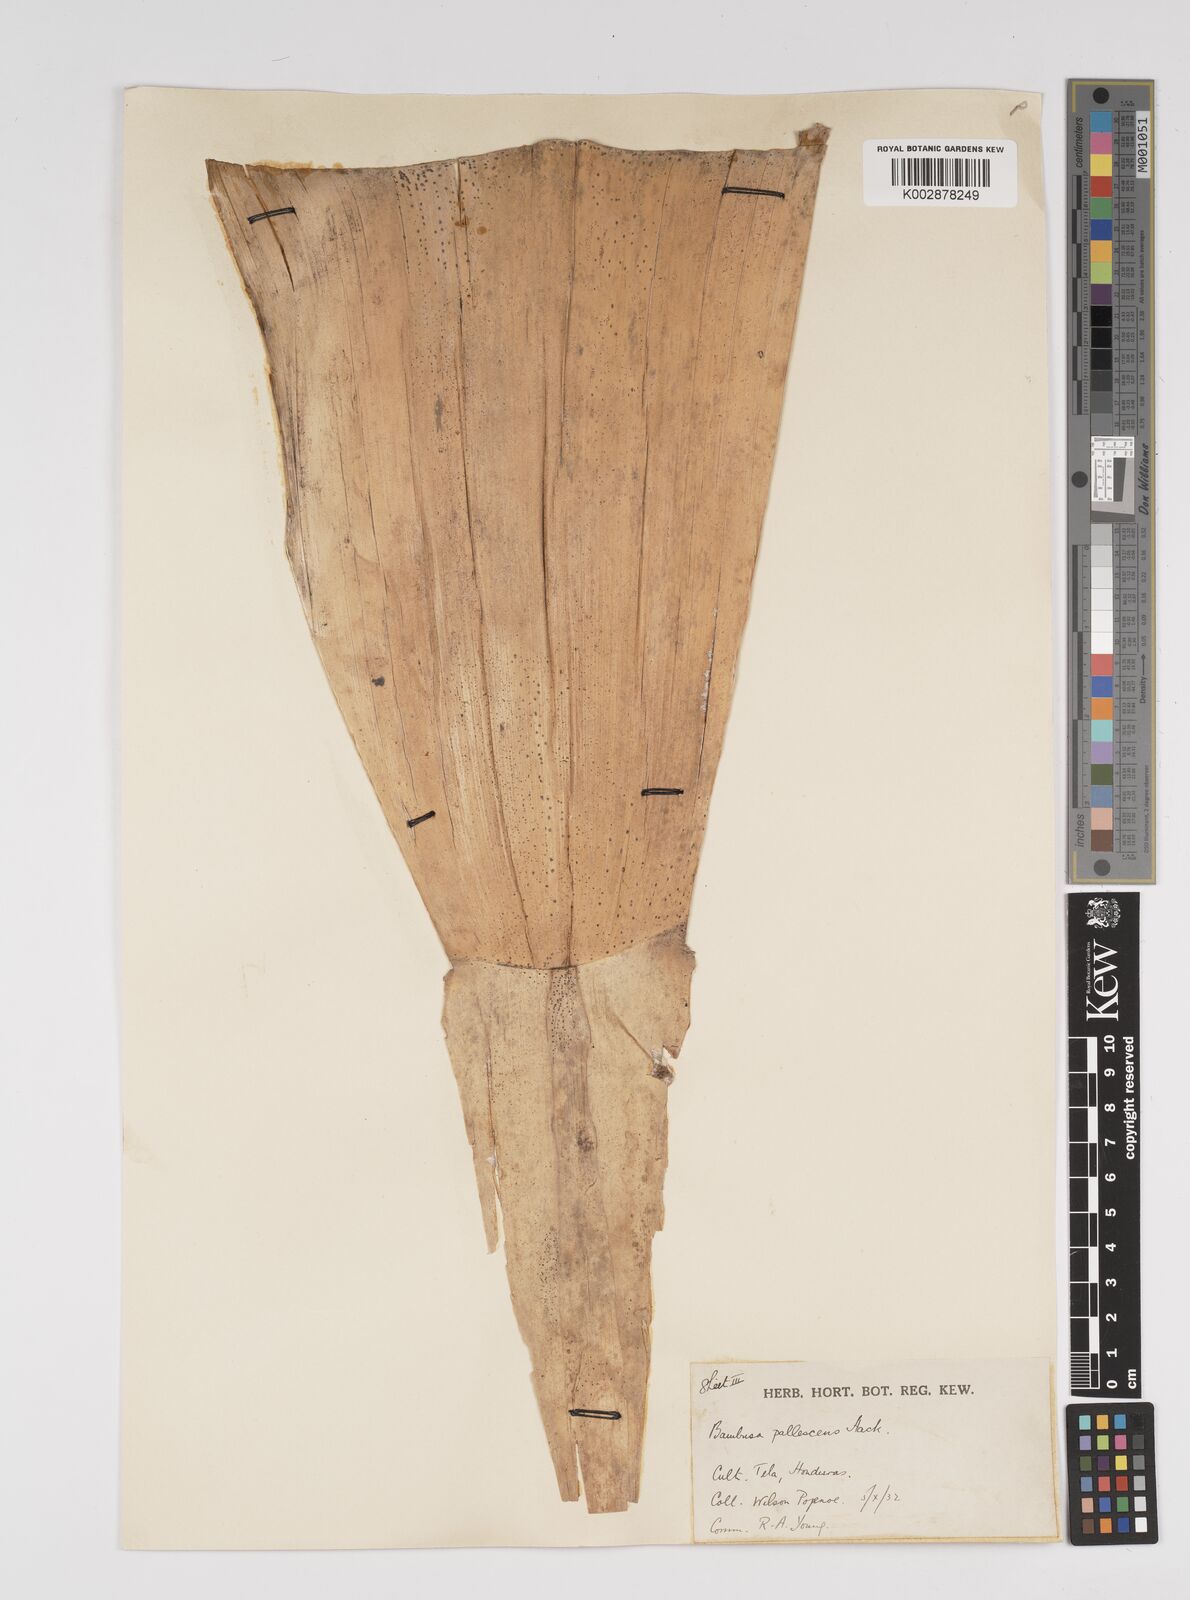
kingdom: Plantae
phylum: Tracheophyta
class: Liliopsida
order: Poales
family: Poaceae
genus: Bambusa
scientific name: Bambusa tuldoides
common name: Verdant bamboo
